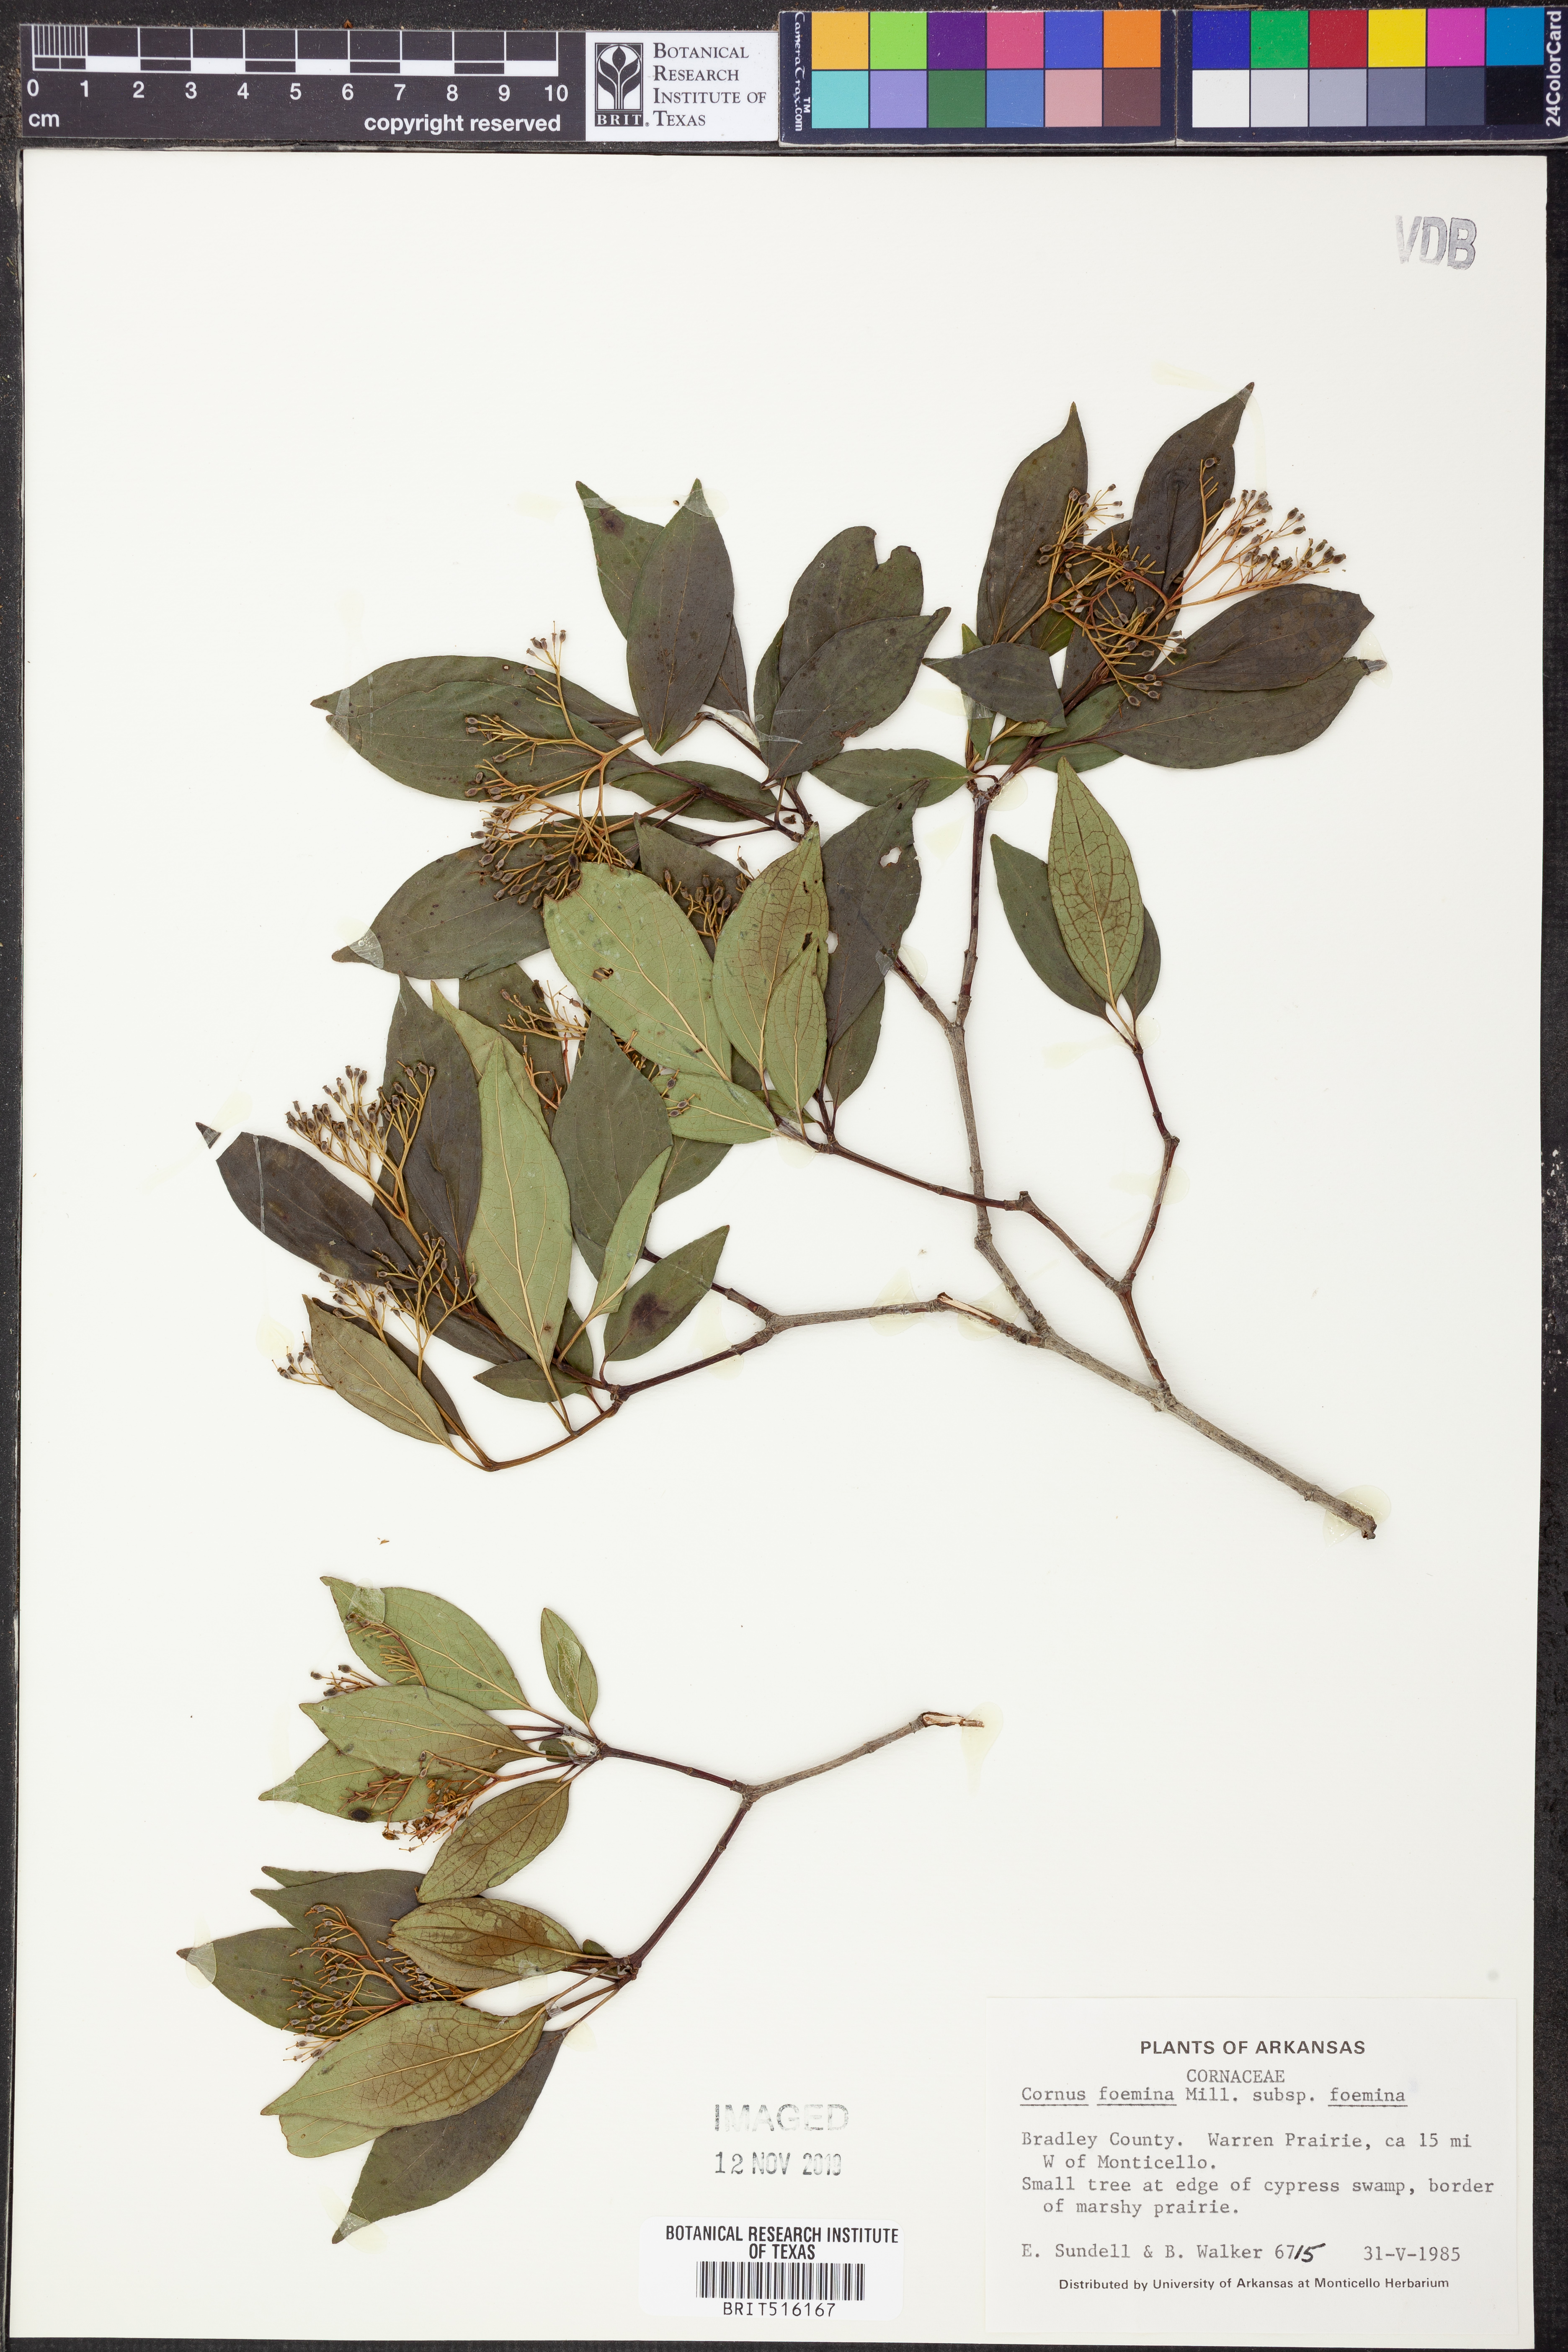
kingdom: Plantae
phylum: Tracheophyta
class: Magnoliopsida
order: Cornales
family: Cornaceae
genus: Cornus
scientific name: Cornus foemina
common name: Swamp dogwood
